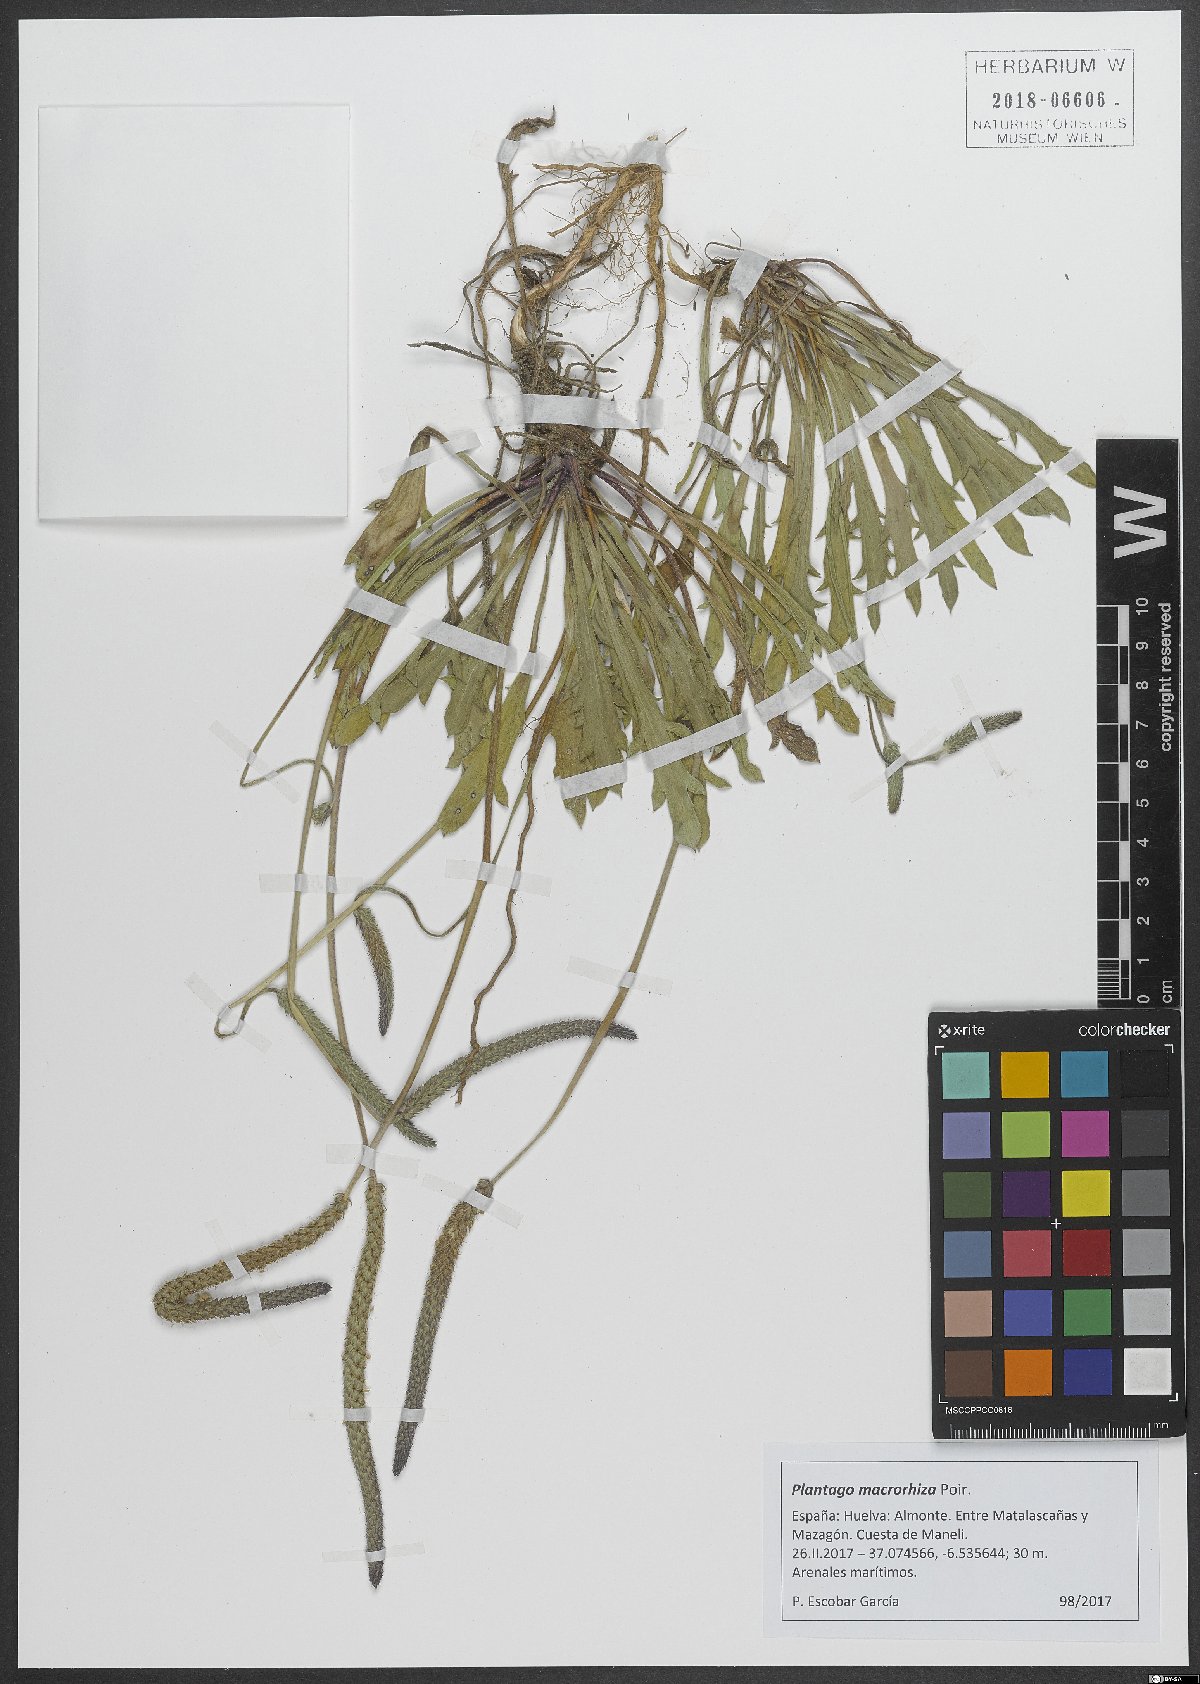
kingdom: Plantae
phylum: Tracheophyta
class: Magnoliopsida
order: Lamiales
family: Plantaginaceae
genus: Plantago
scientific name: Plantago macrorhiza
